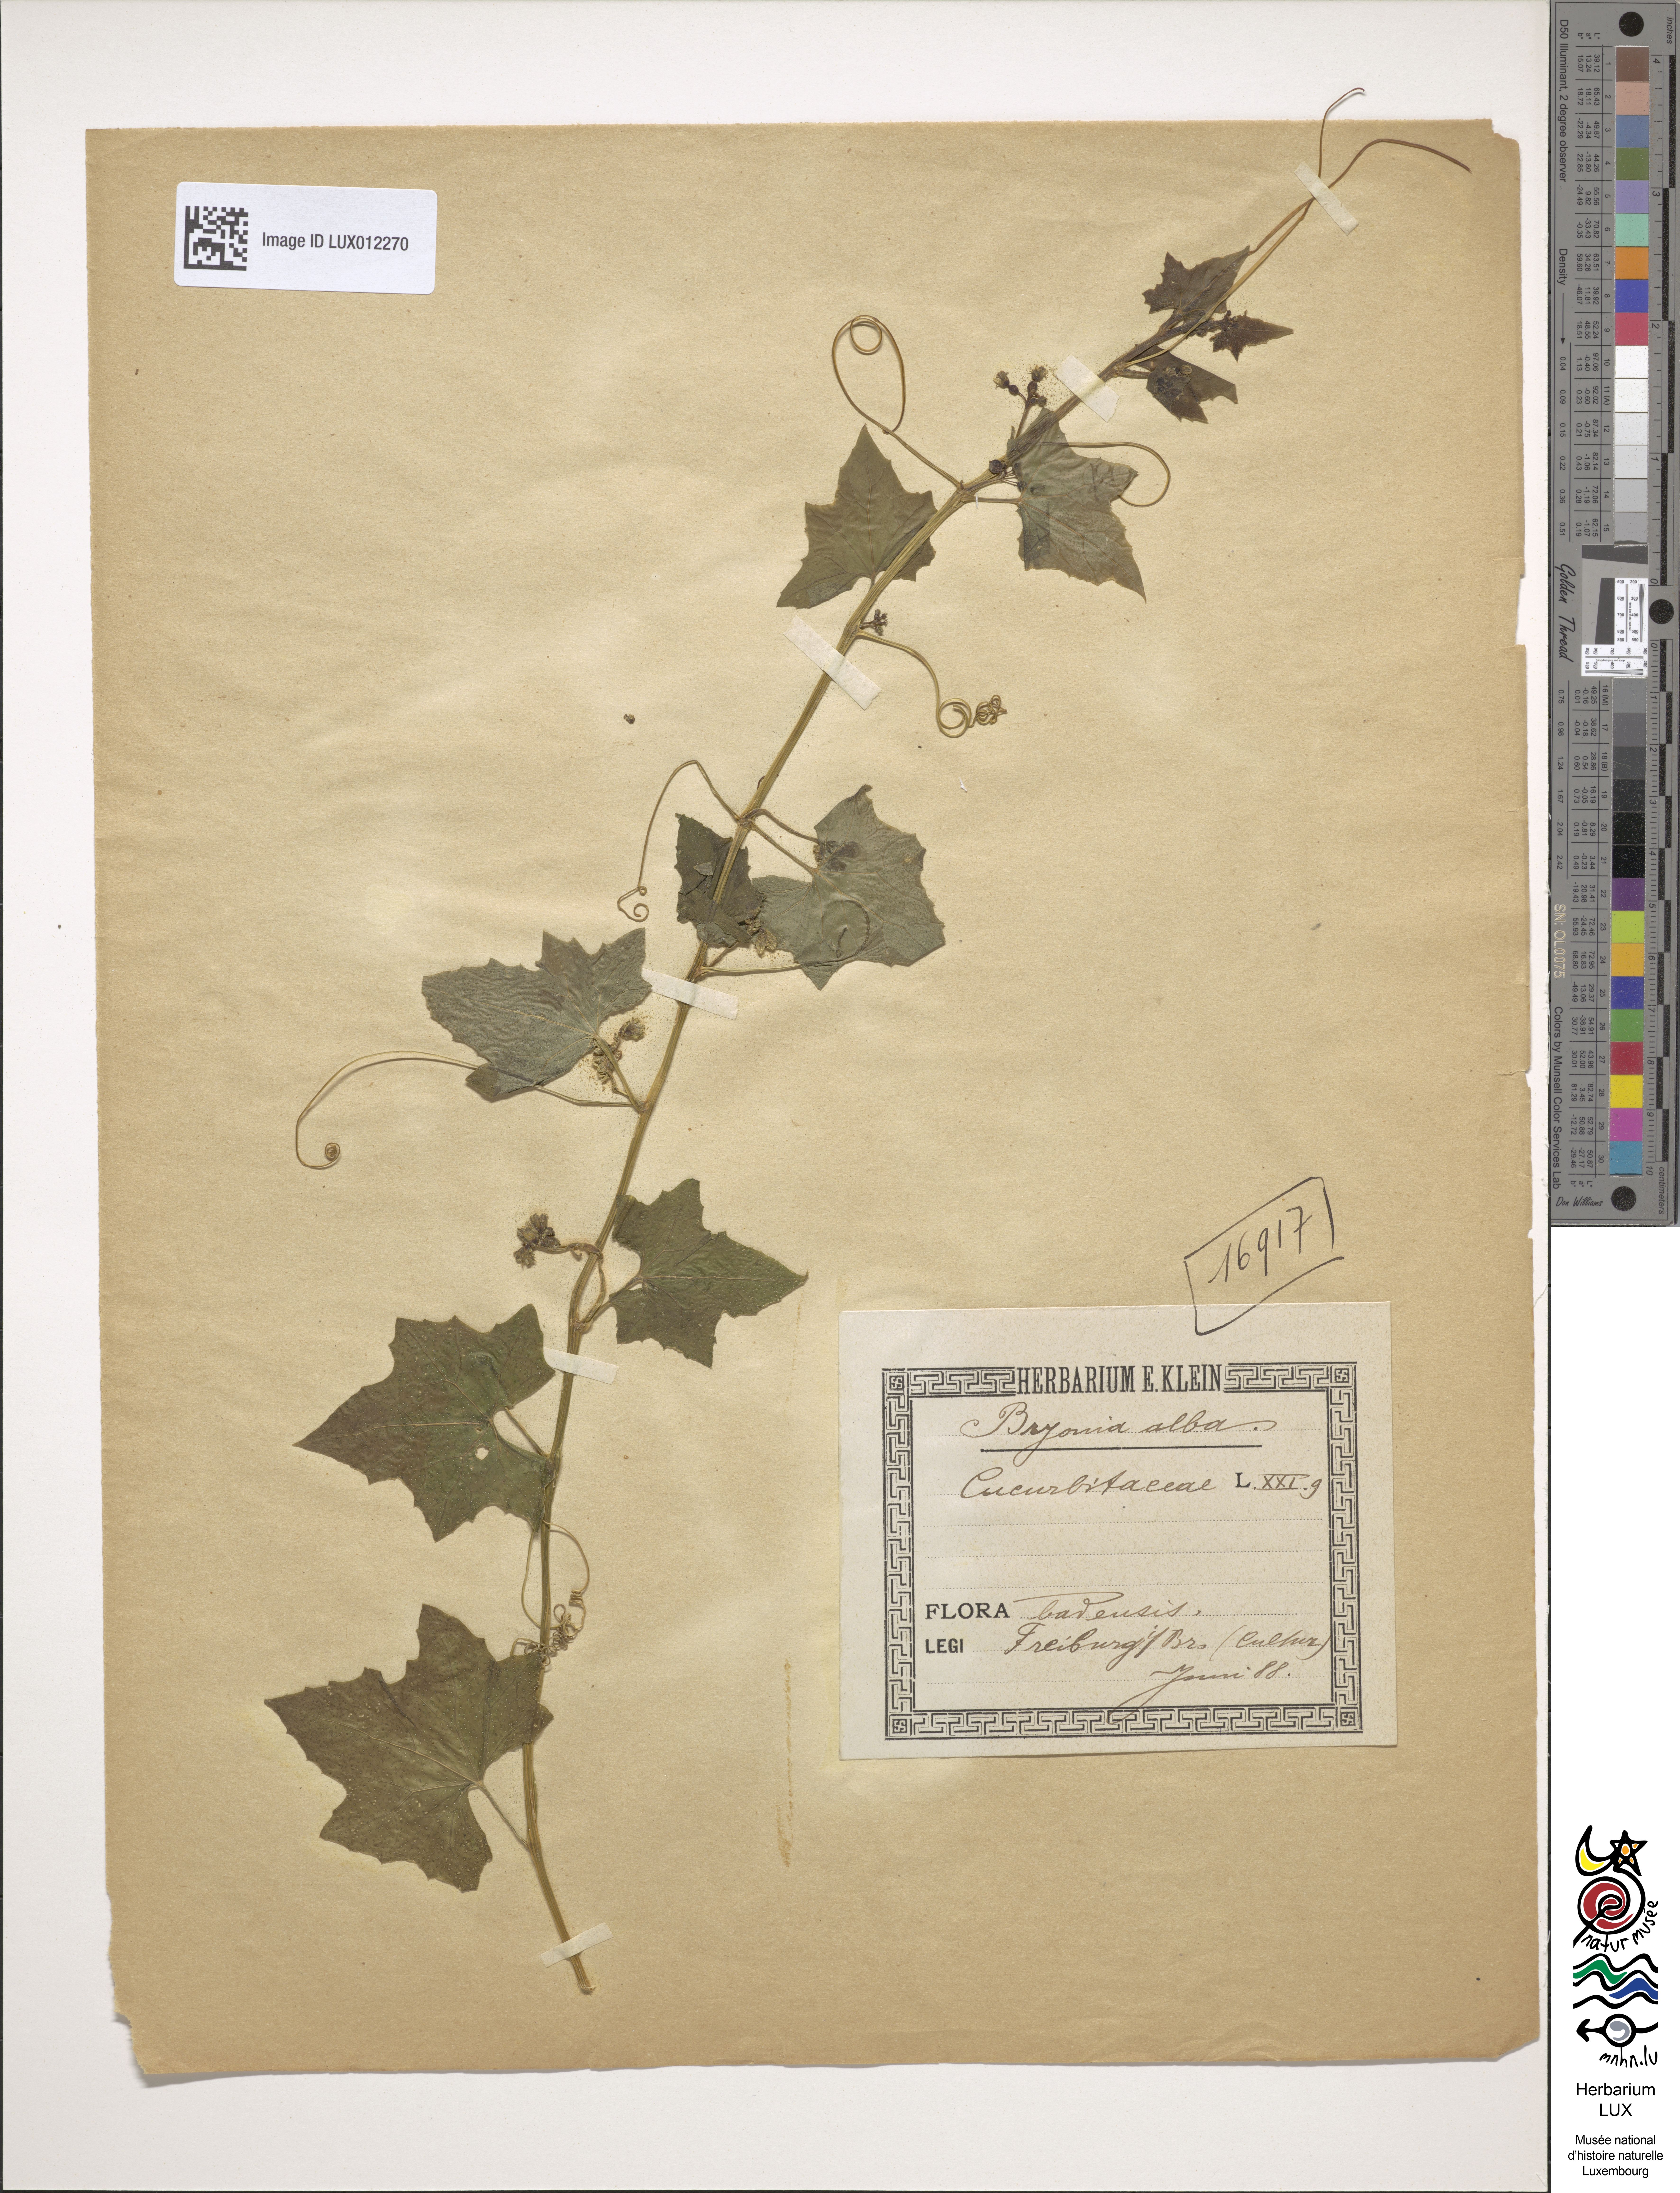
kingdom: Plantae
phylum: Tracheophyta
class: Magnoliopsida
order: Cucurbitales
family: Cucurbitaceae
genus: Bryonia
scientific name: Bryonia alba
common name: White bryony
